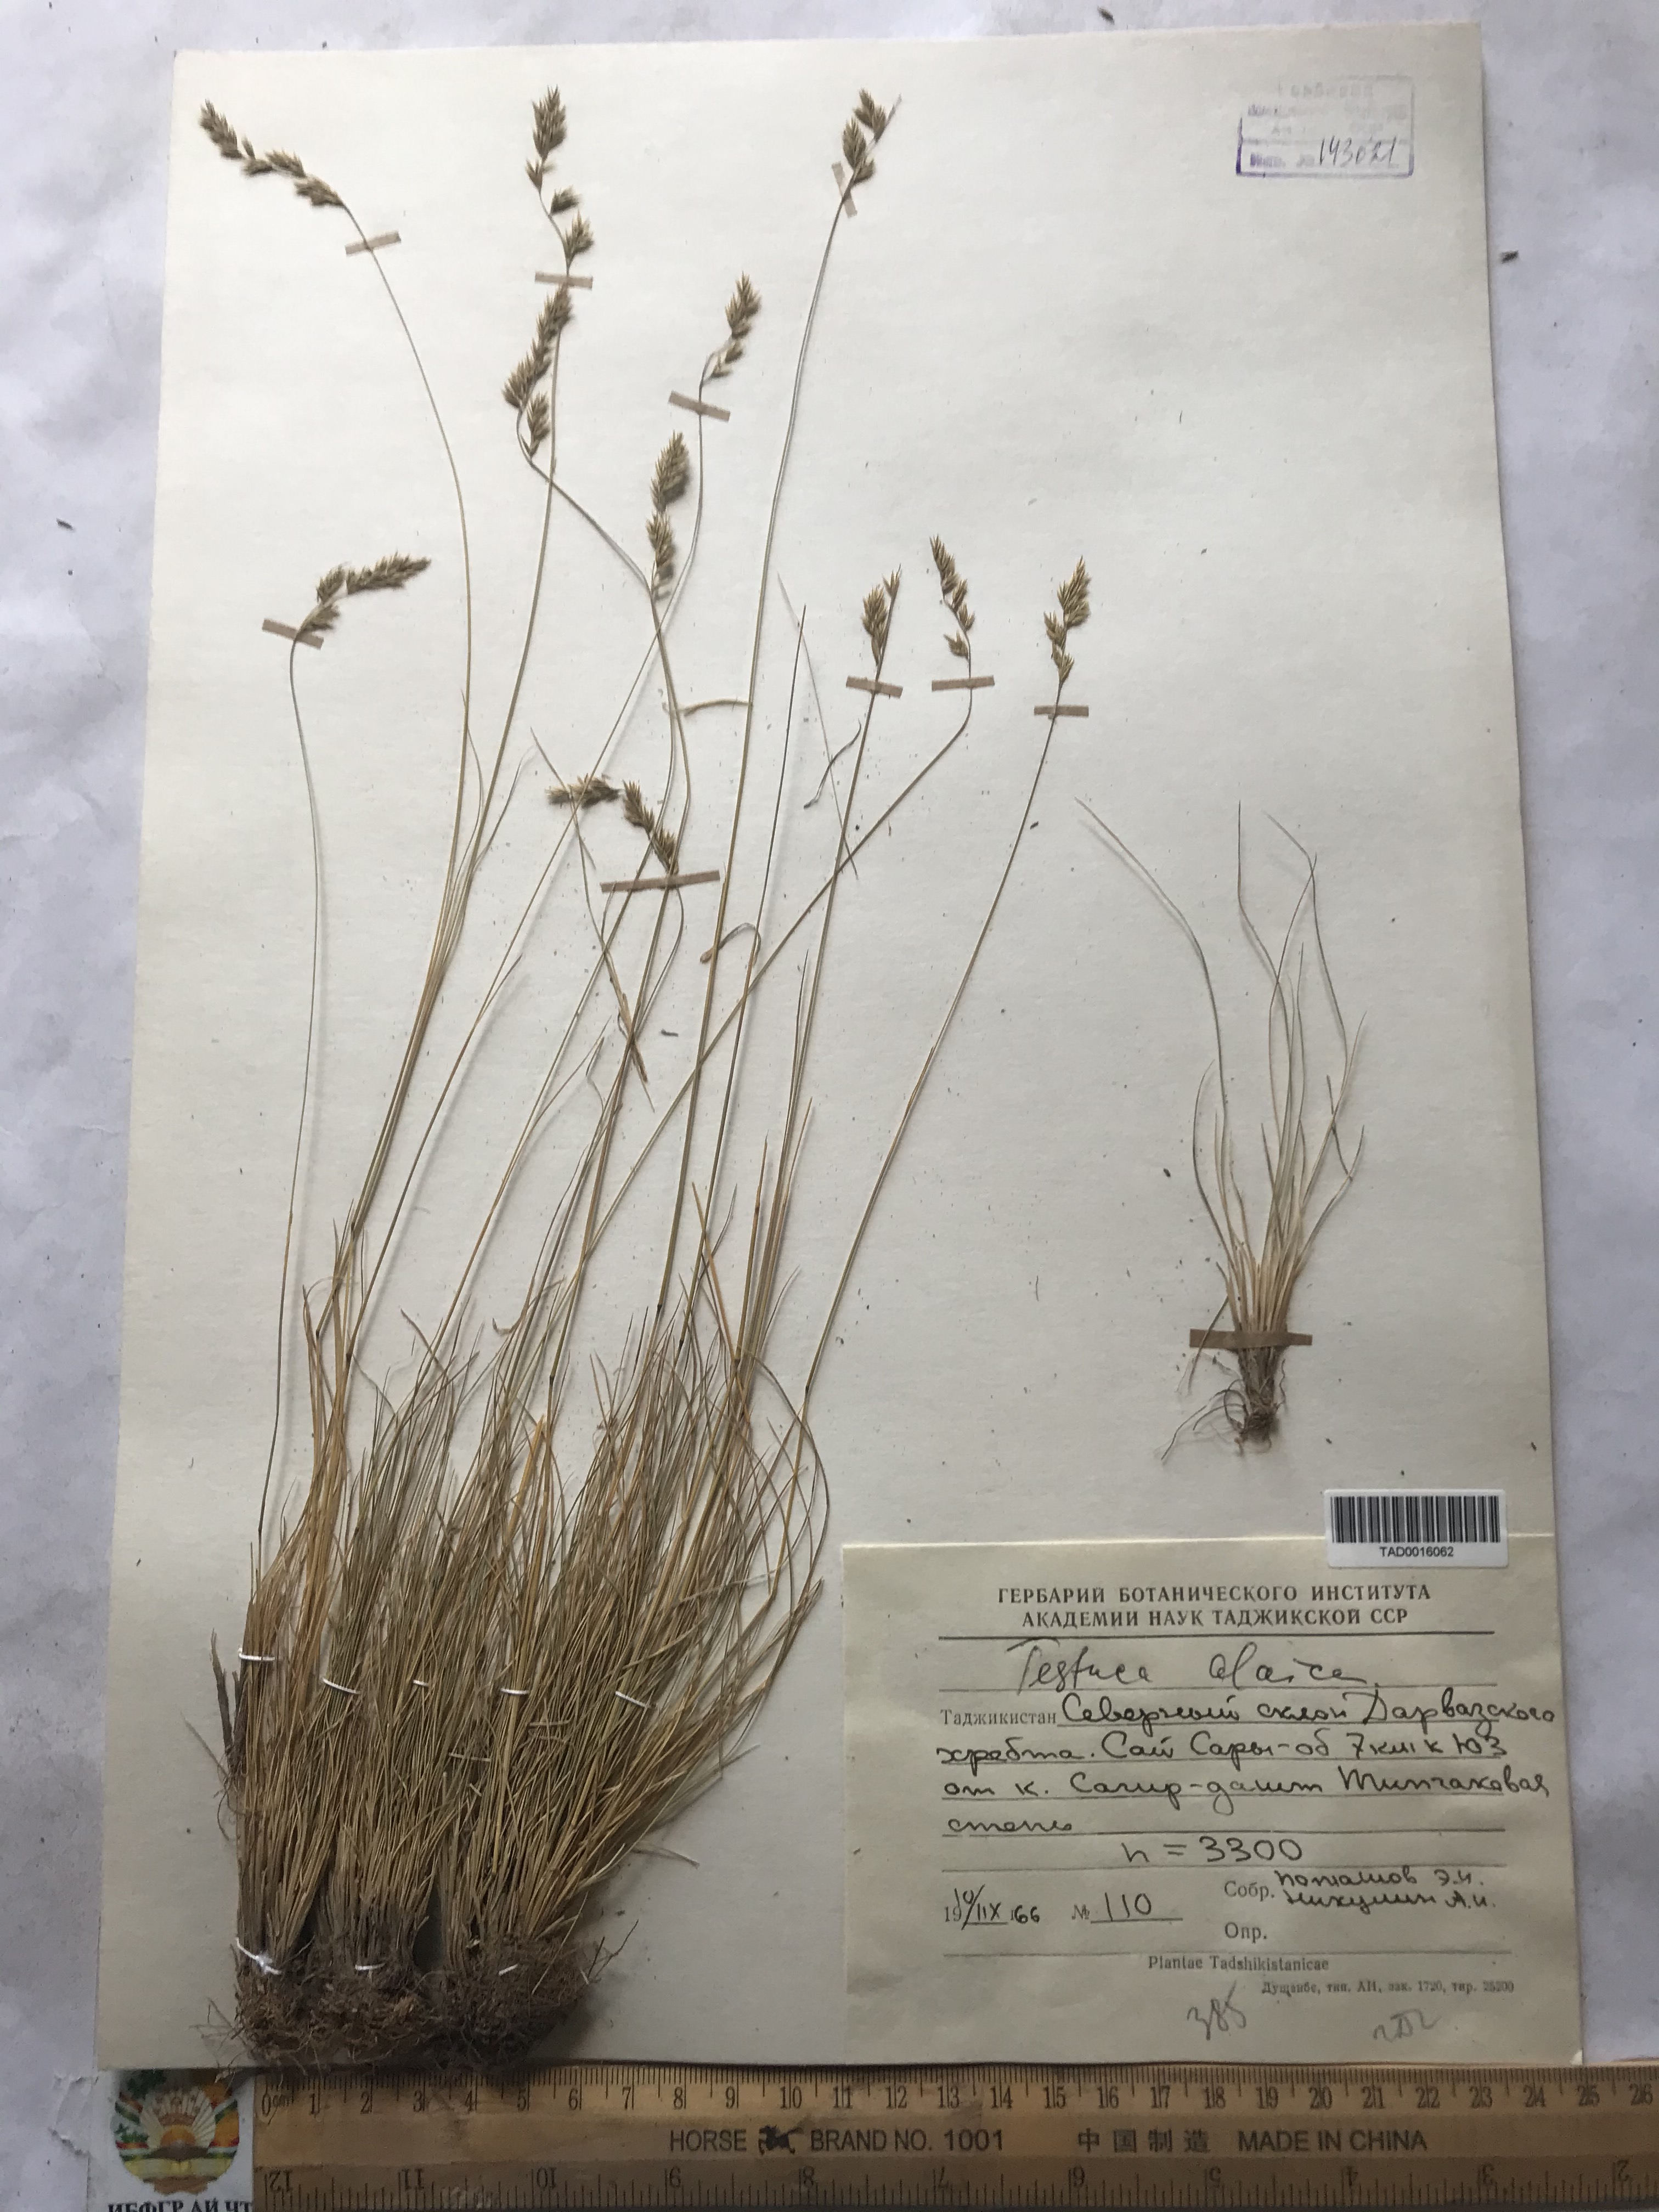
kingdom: Plantae
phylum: Tracheophyta
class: Liliopsida
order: Poales
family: Poaceae
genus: Festuca
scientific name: Festuca alaica
